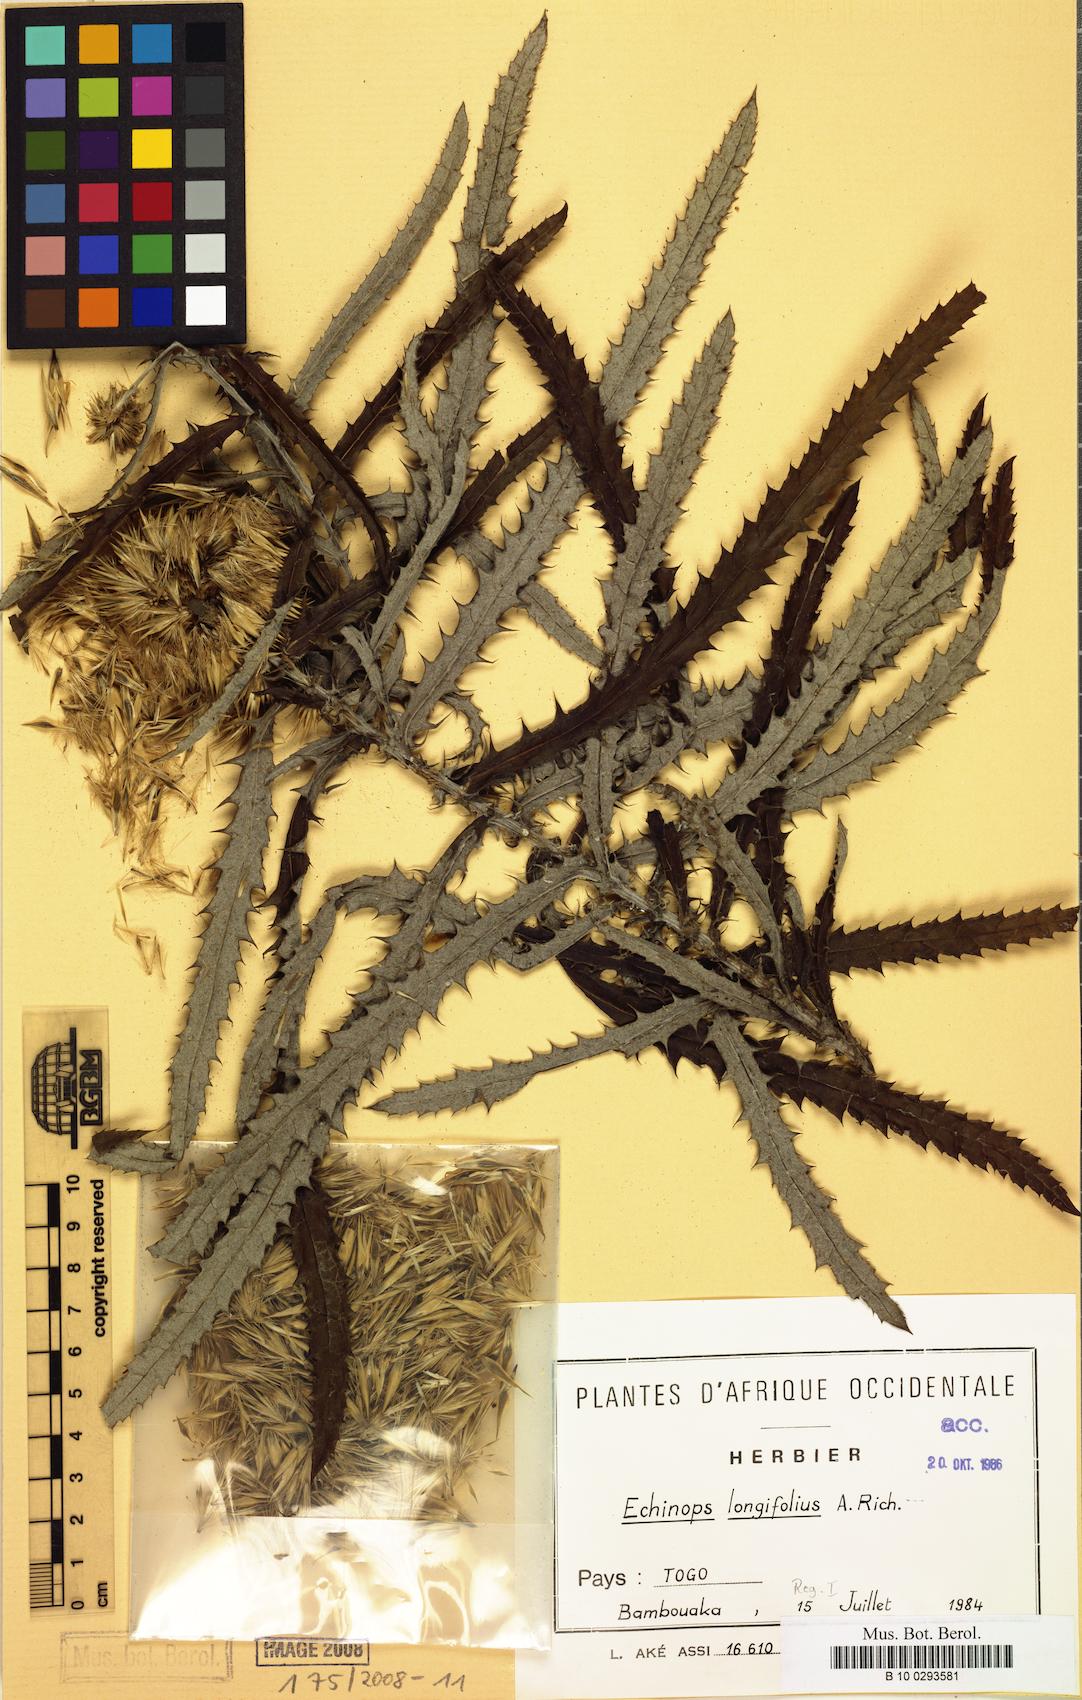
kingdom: Plantae
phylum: Tracheophyta
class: Magnoliopsida
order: Asterales
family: Asteraceae
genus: Echinops
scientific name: Echinops longifolius
